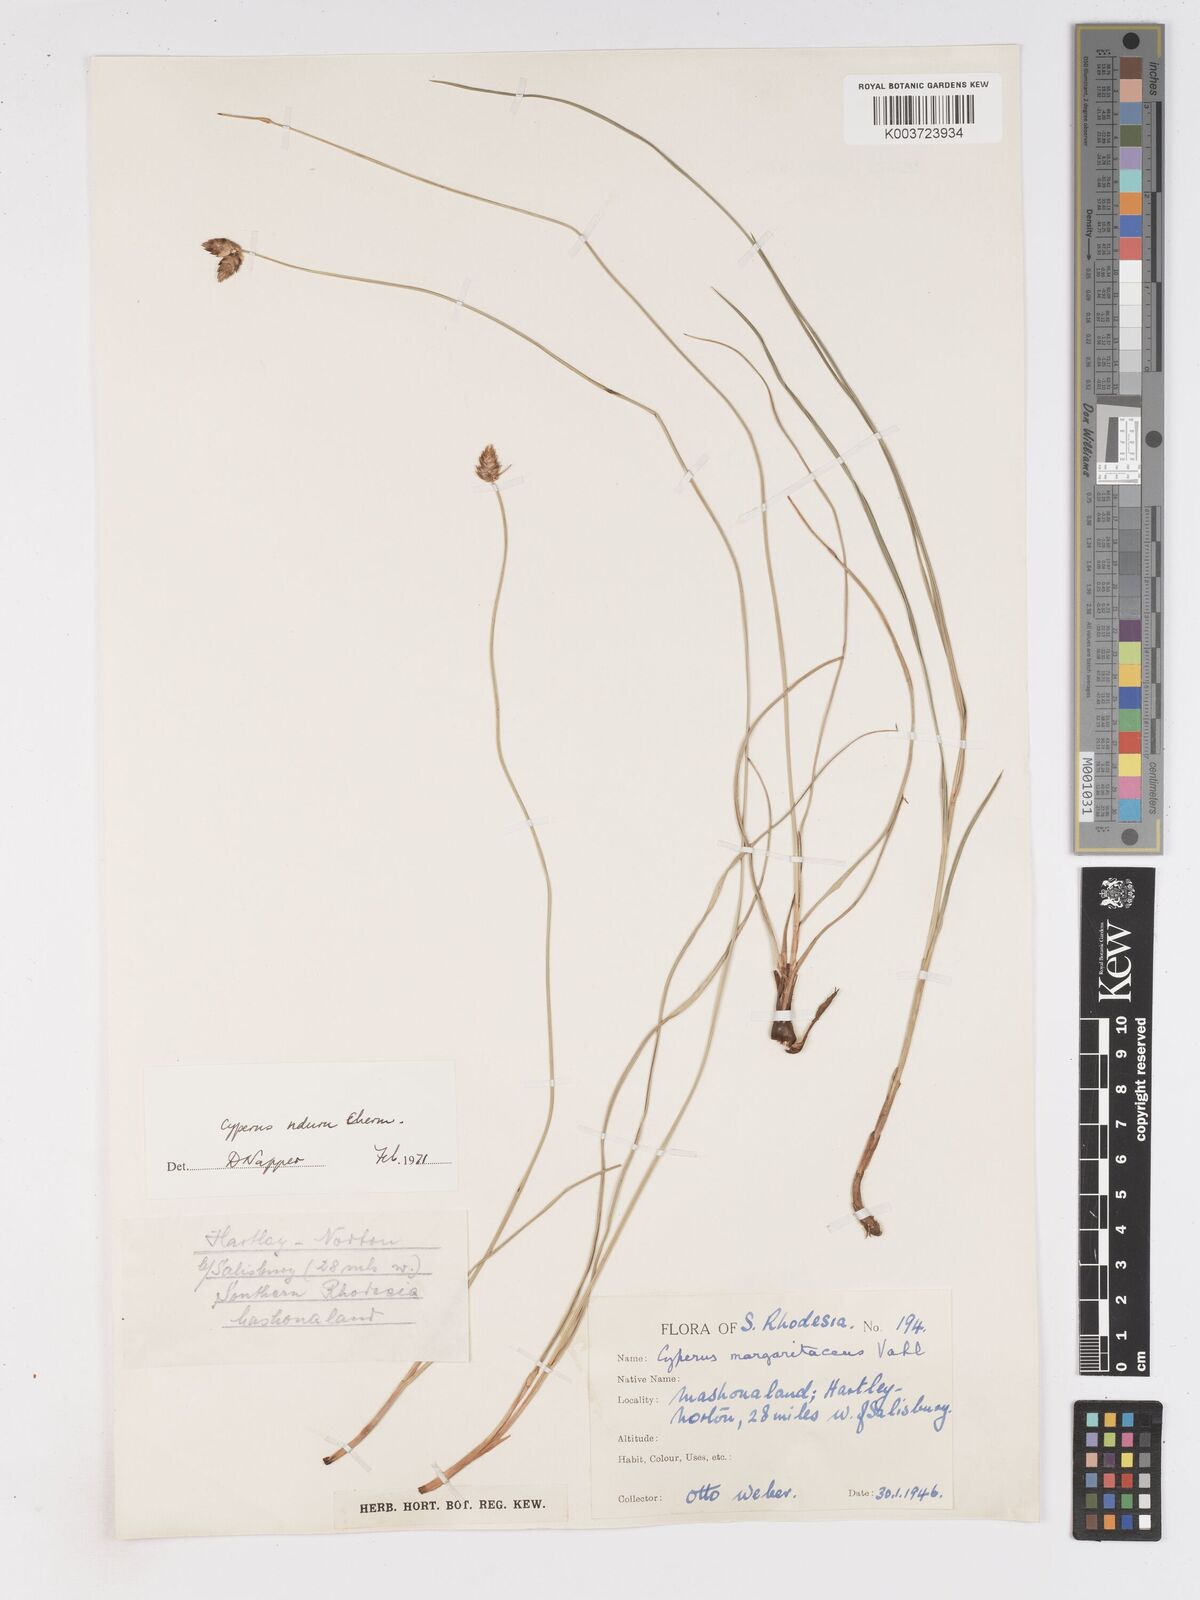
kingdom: Plantae
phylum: Tracheophyta
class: Liliopsida
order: Poales
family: Cyperaceae
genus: Cyperus
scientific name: Cyperus nduru
